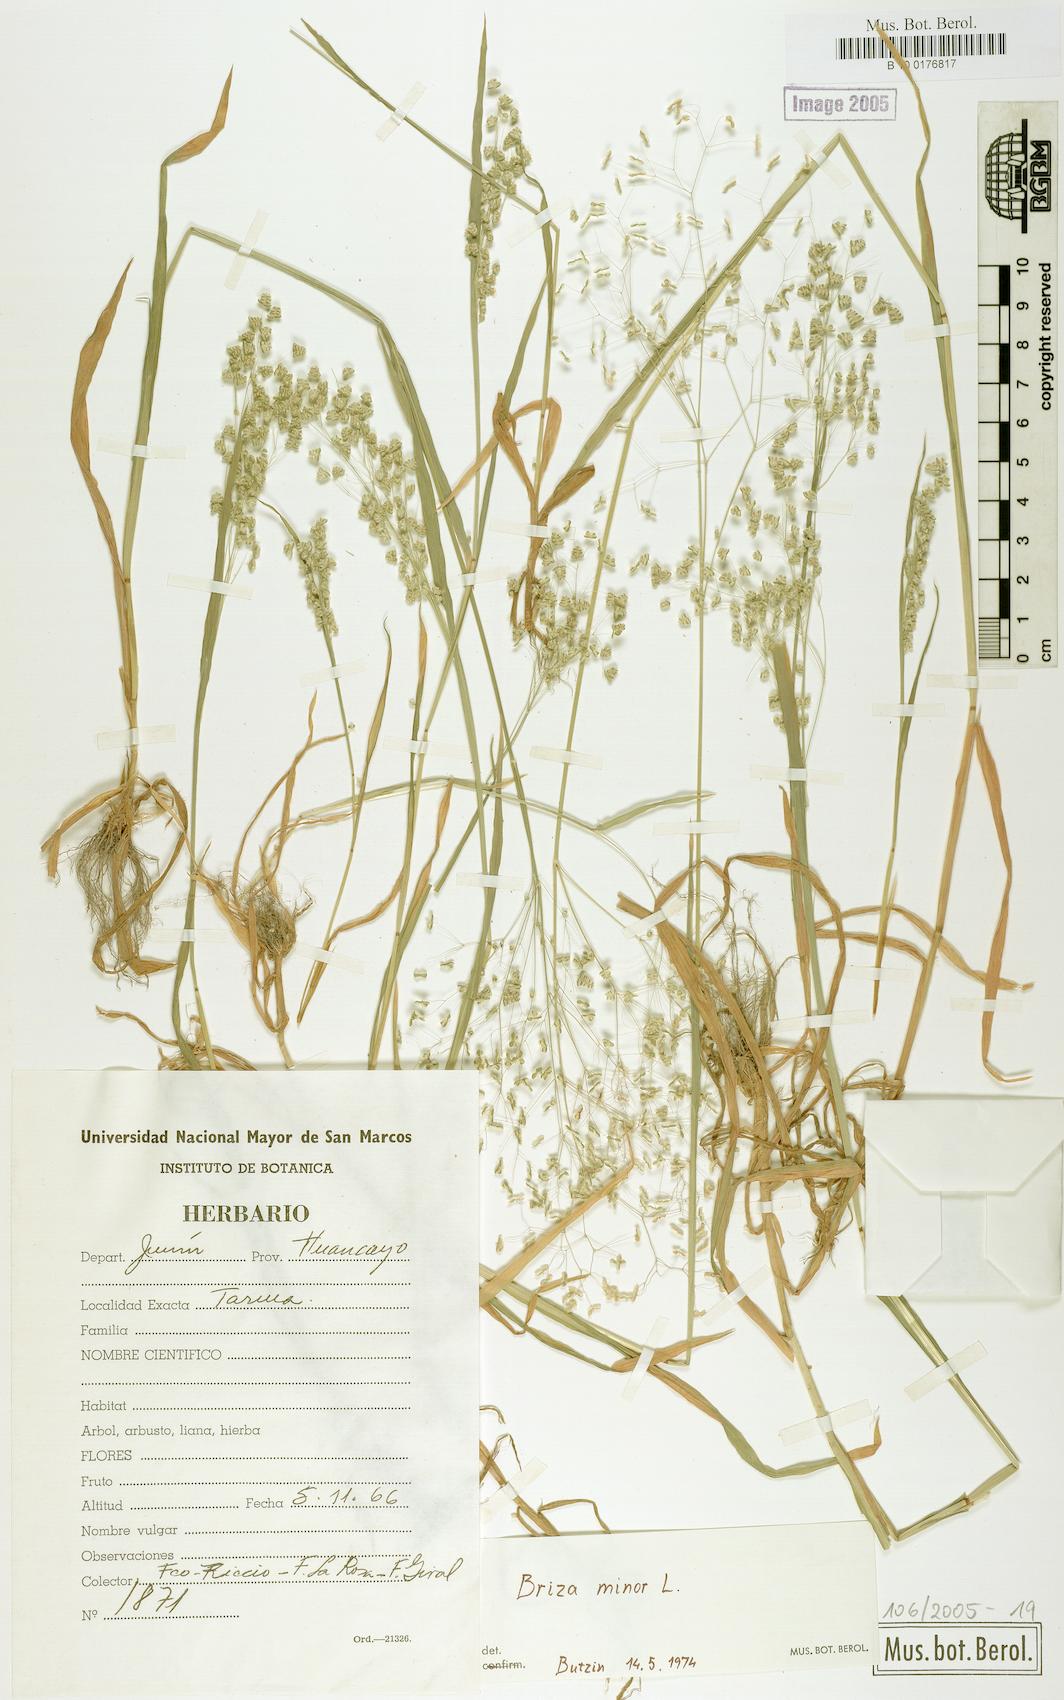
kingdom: Plantae
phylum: Tracheophyta
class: Liliopsida
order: Poales
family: Poaceae
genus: Briza
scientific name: Briza minor
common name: Lesser quaking-grass
